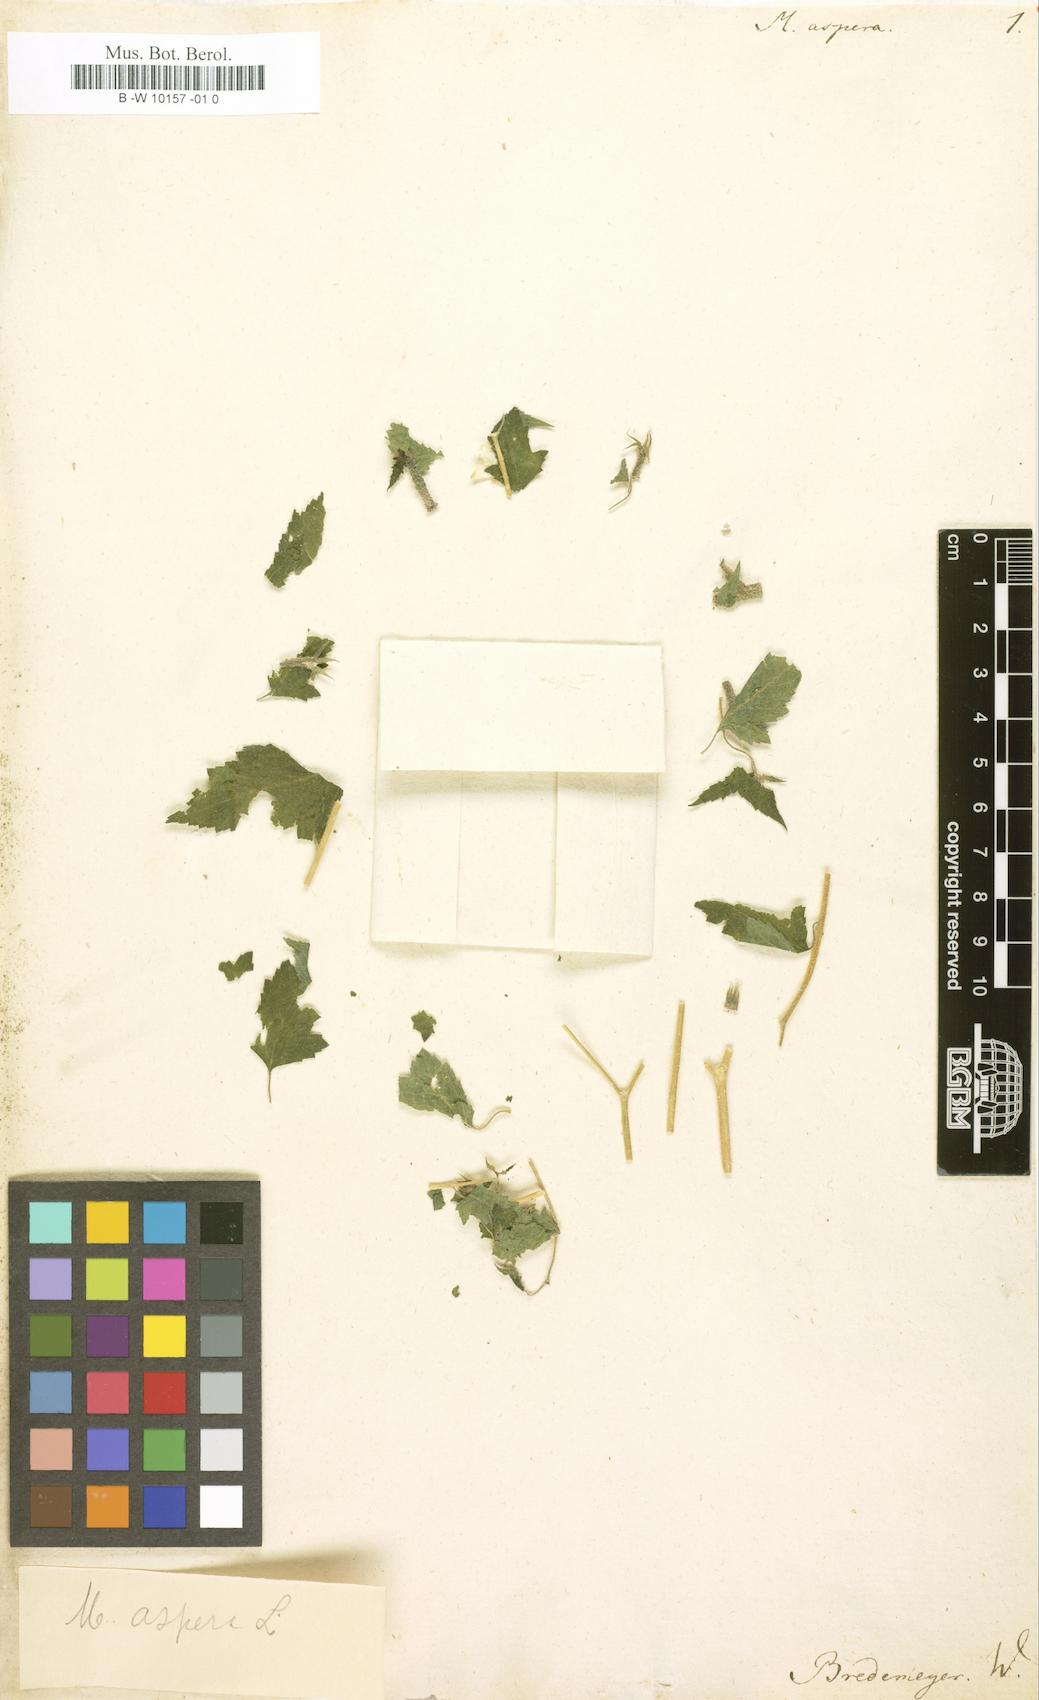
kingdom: Plantae
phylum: Tracheophyta
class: Magnoliopsida
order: Cornales
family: Loasaceae
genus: Mentzelia
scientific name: Mentzelia aspera
